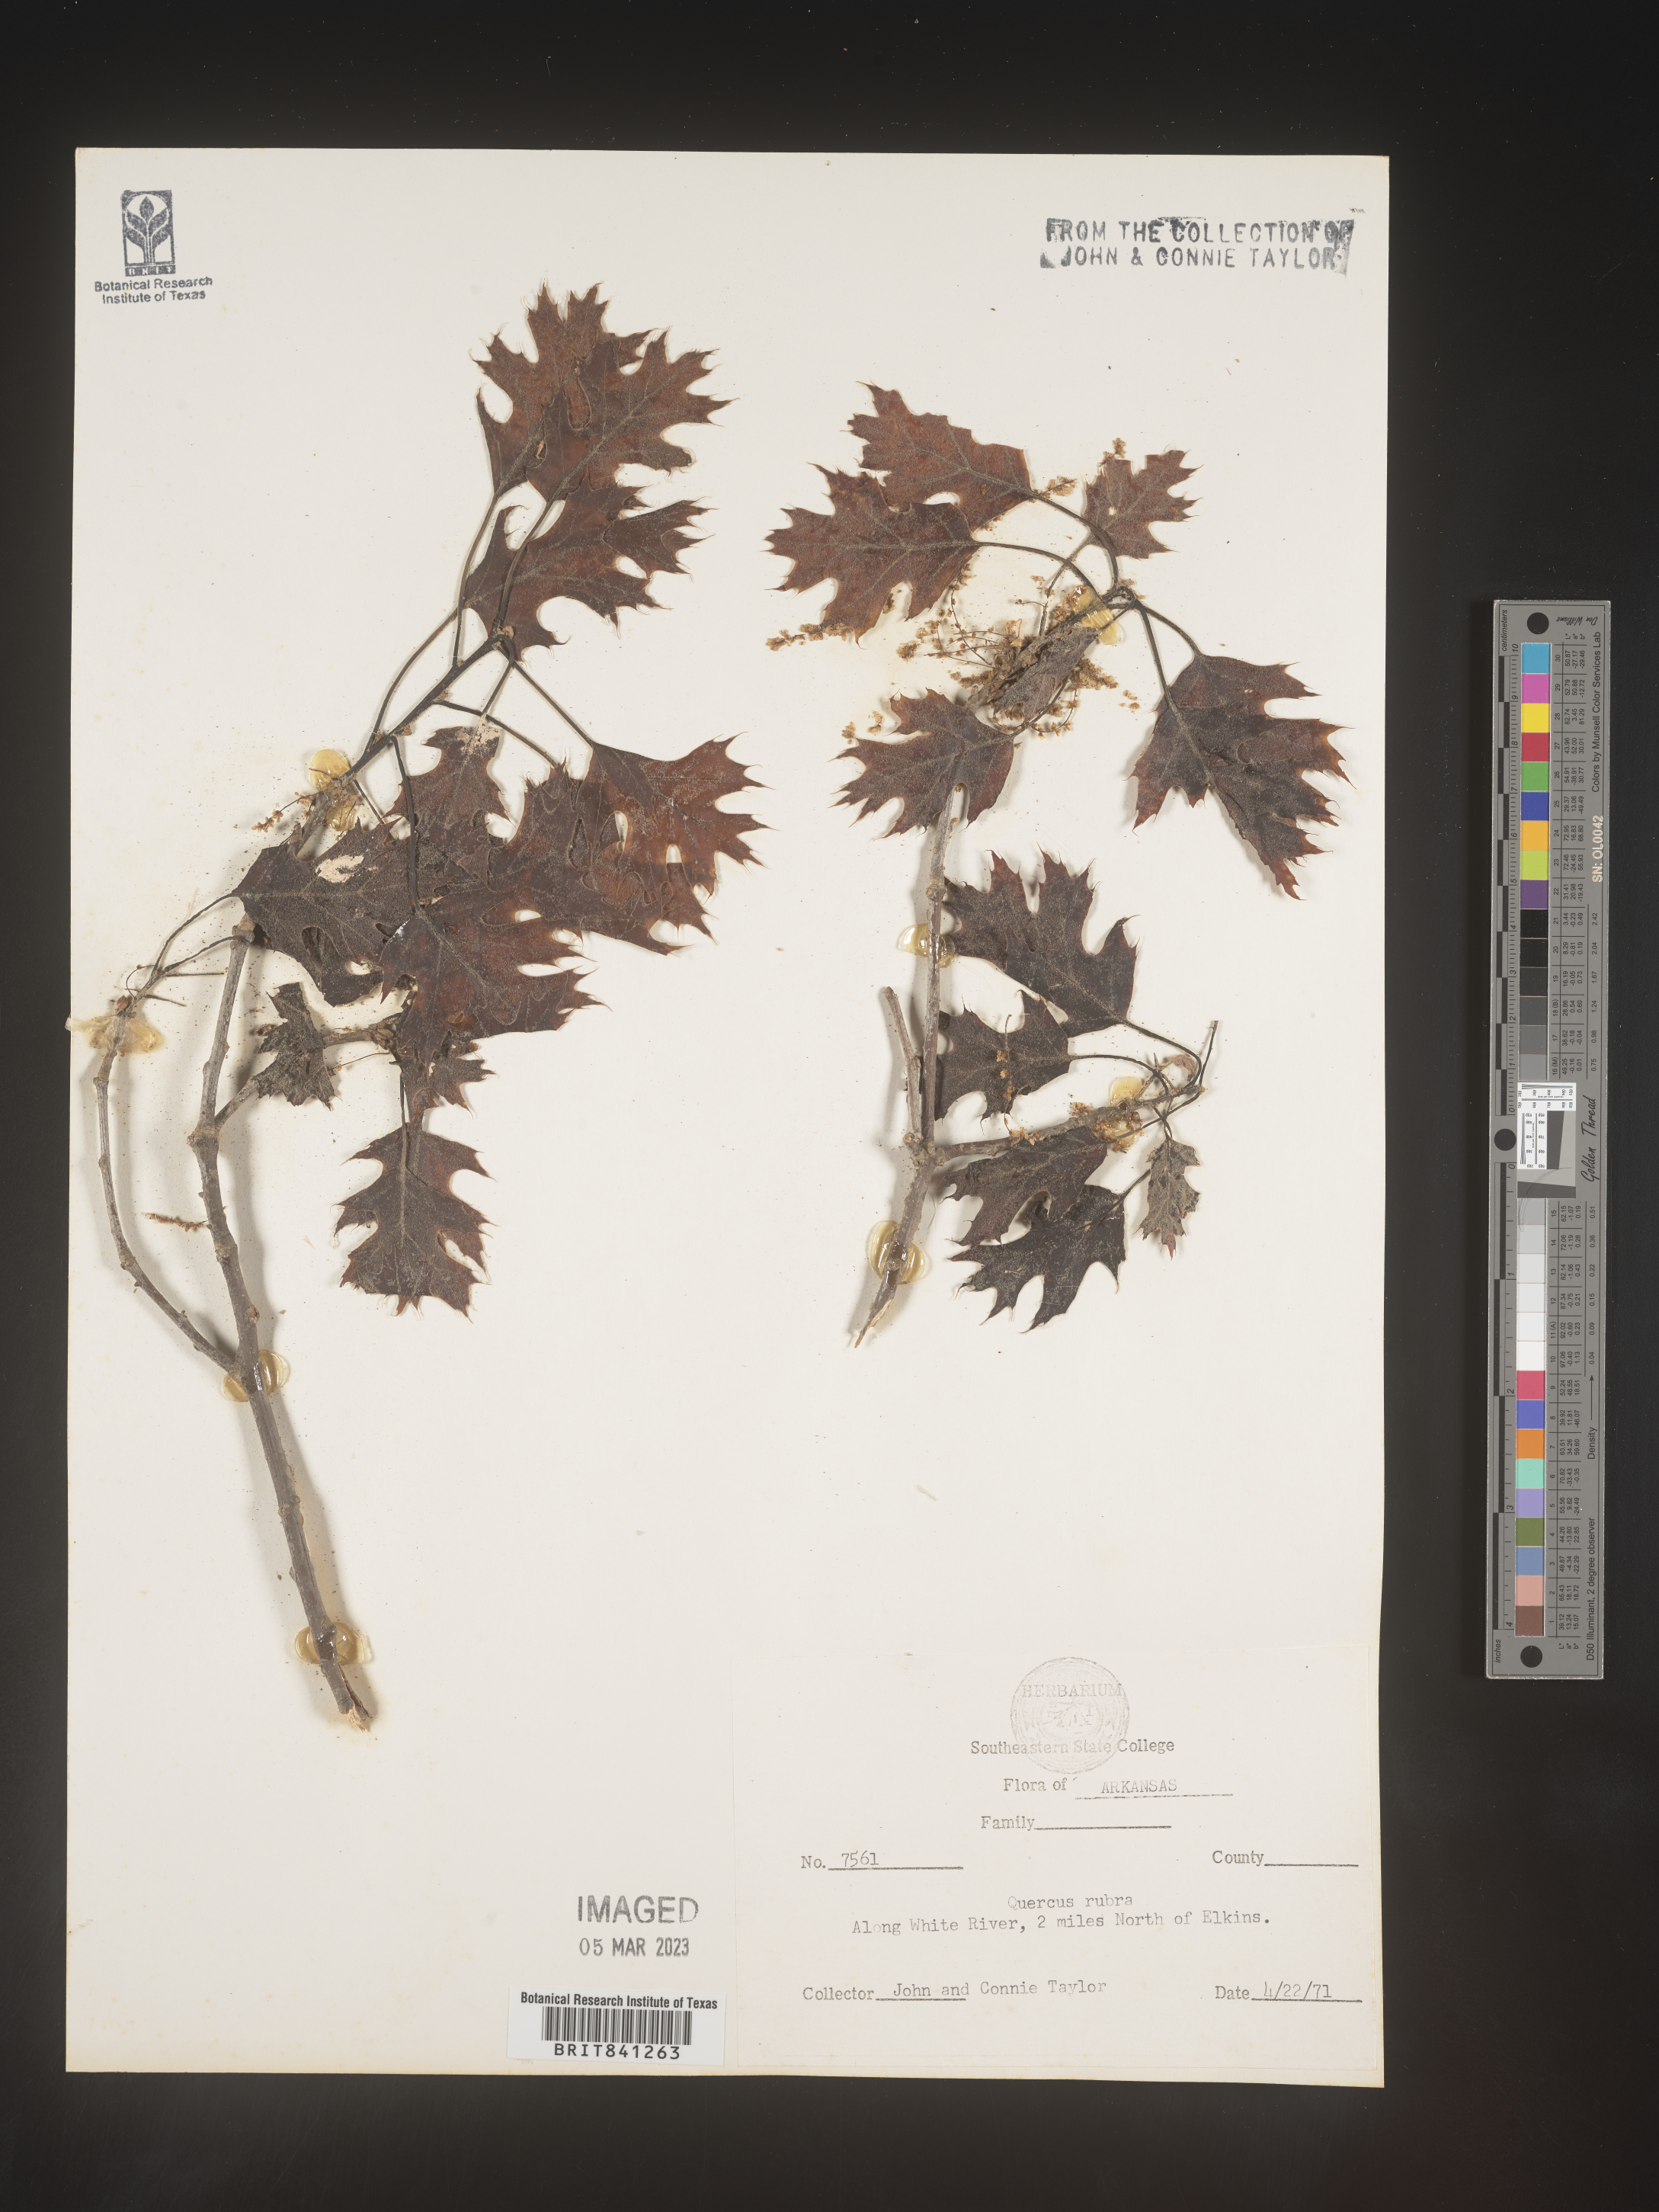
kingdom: Plantae
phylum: Tracheophyta
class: Magnoliopsida
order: Fagales
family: Fagaceae
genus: Quercus
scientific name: Quercus rubra
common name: Red oak
